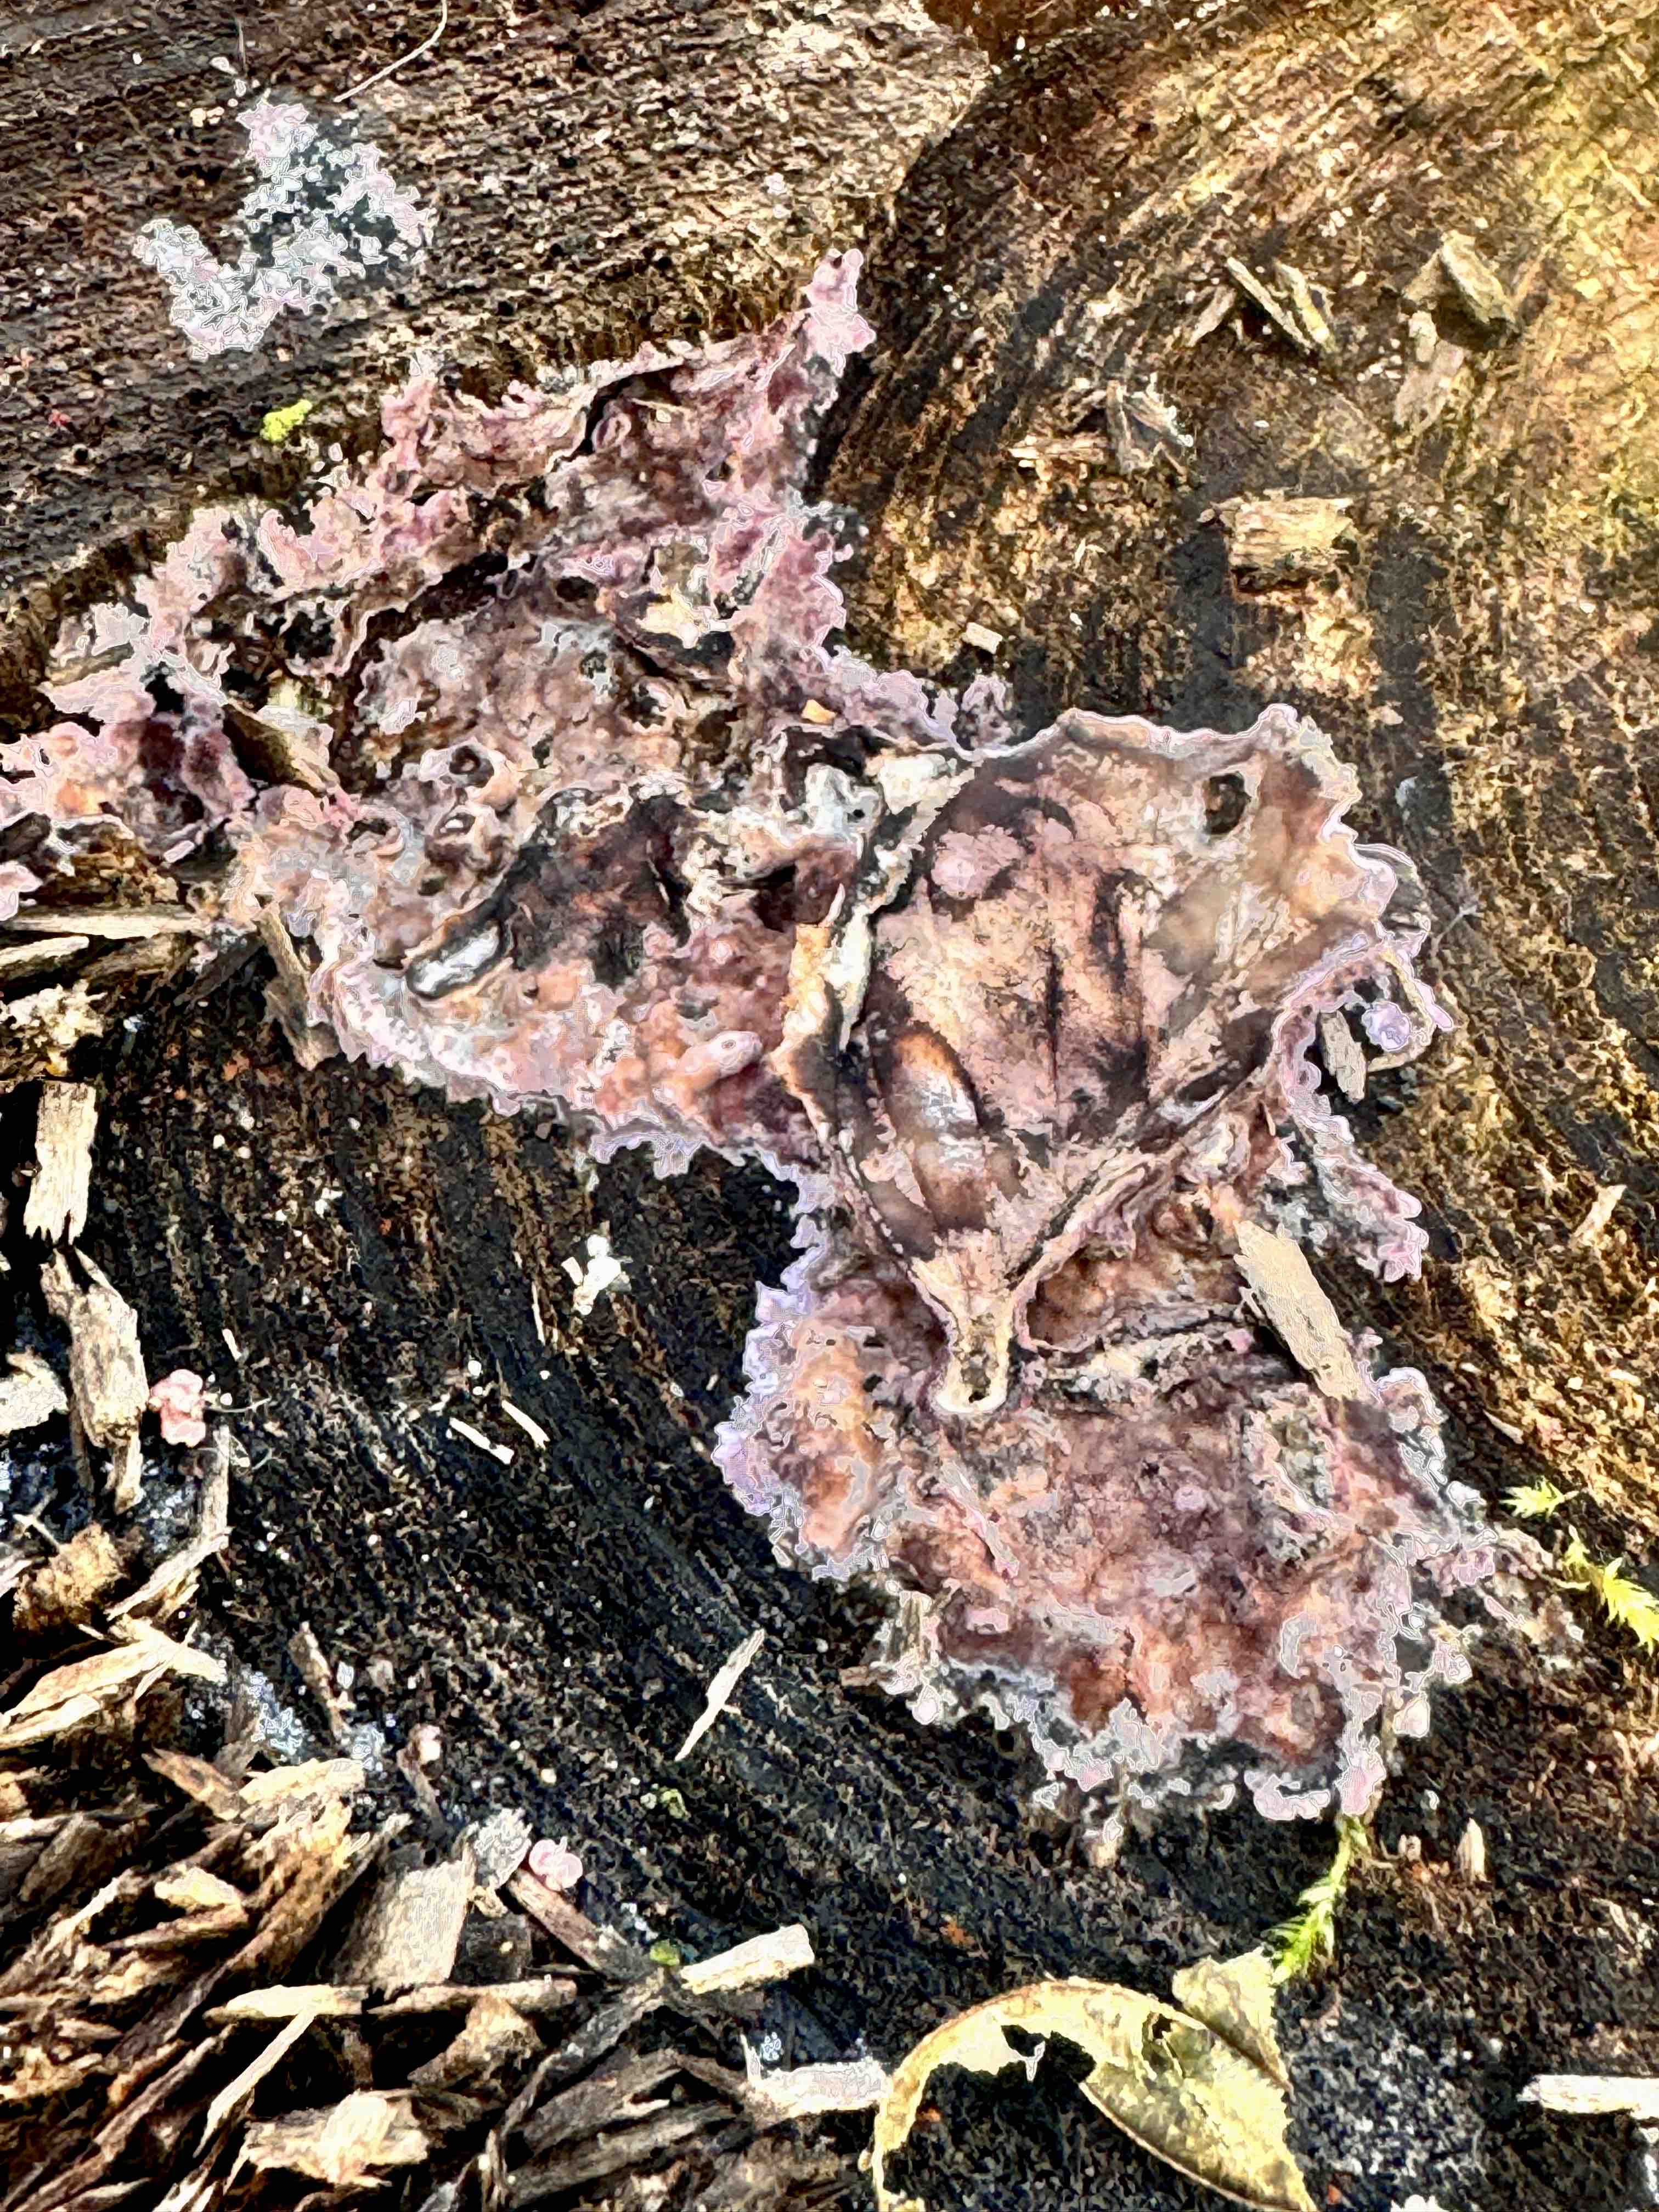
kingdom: Fungi
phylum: Basidiomycota
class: Agaricomycetes
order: Agaricales
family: Cyphellaceae
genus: Chondrostereum
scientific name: Chondrostereum purpureum
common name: purpurlædersvamp
